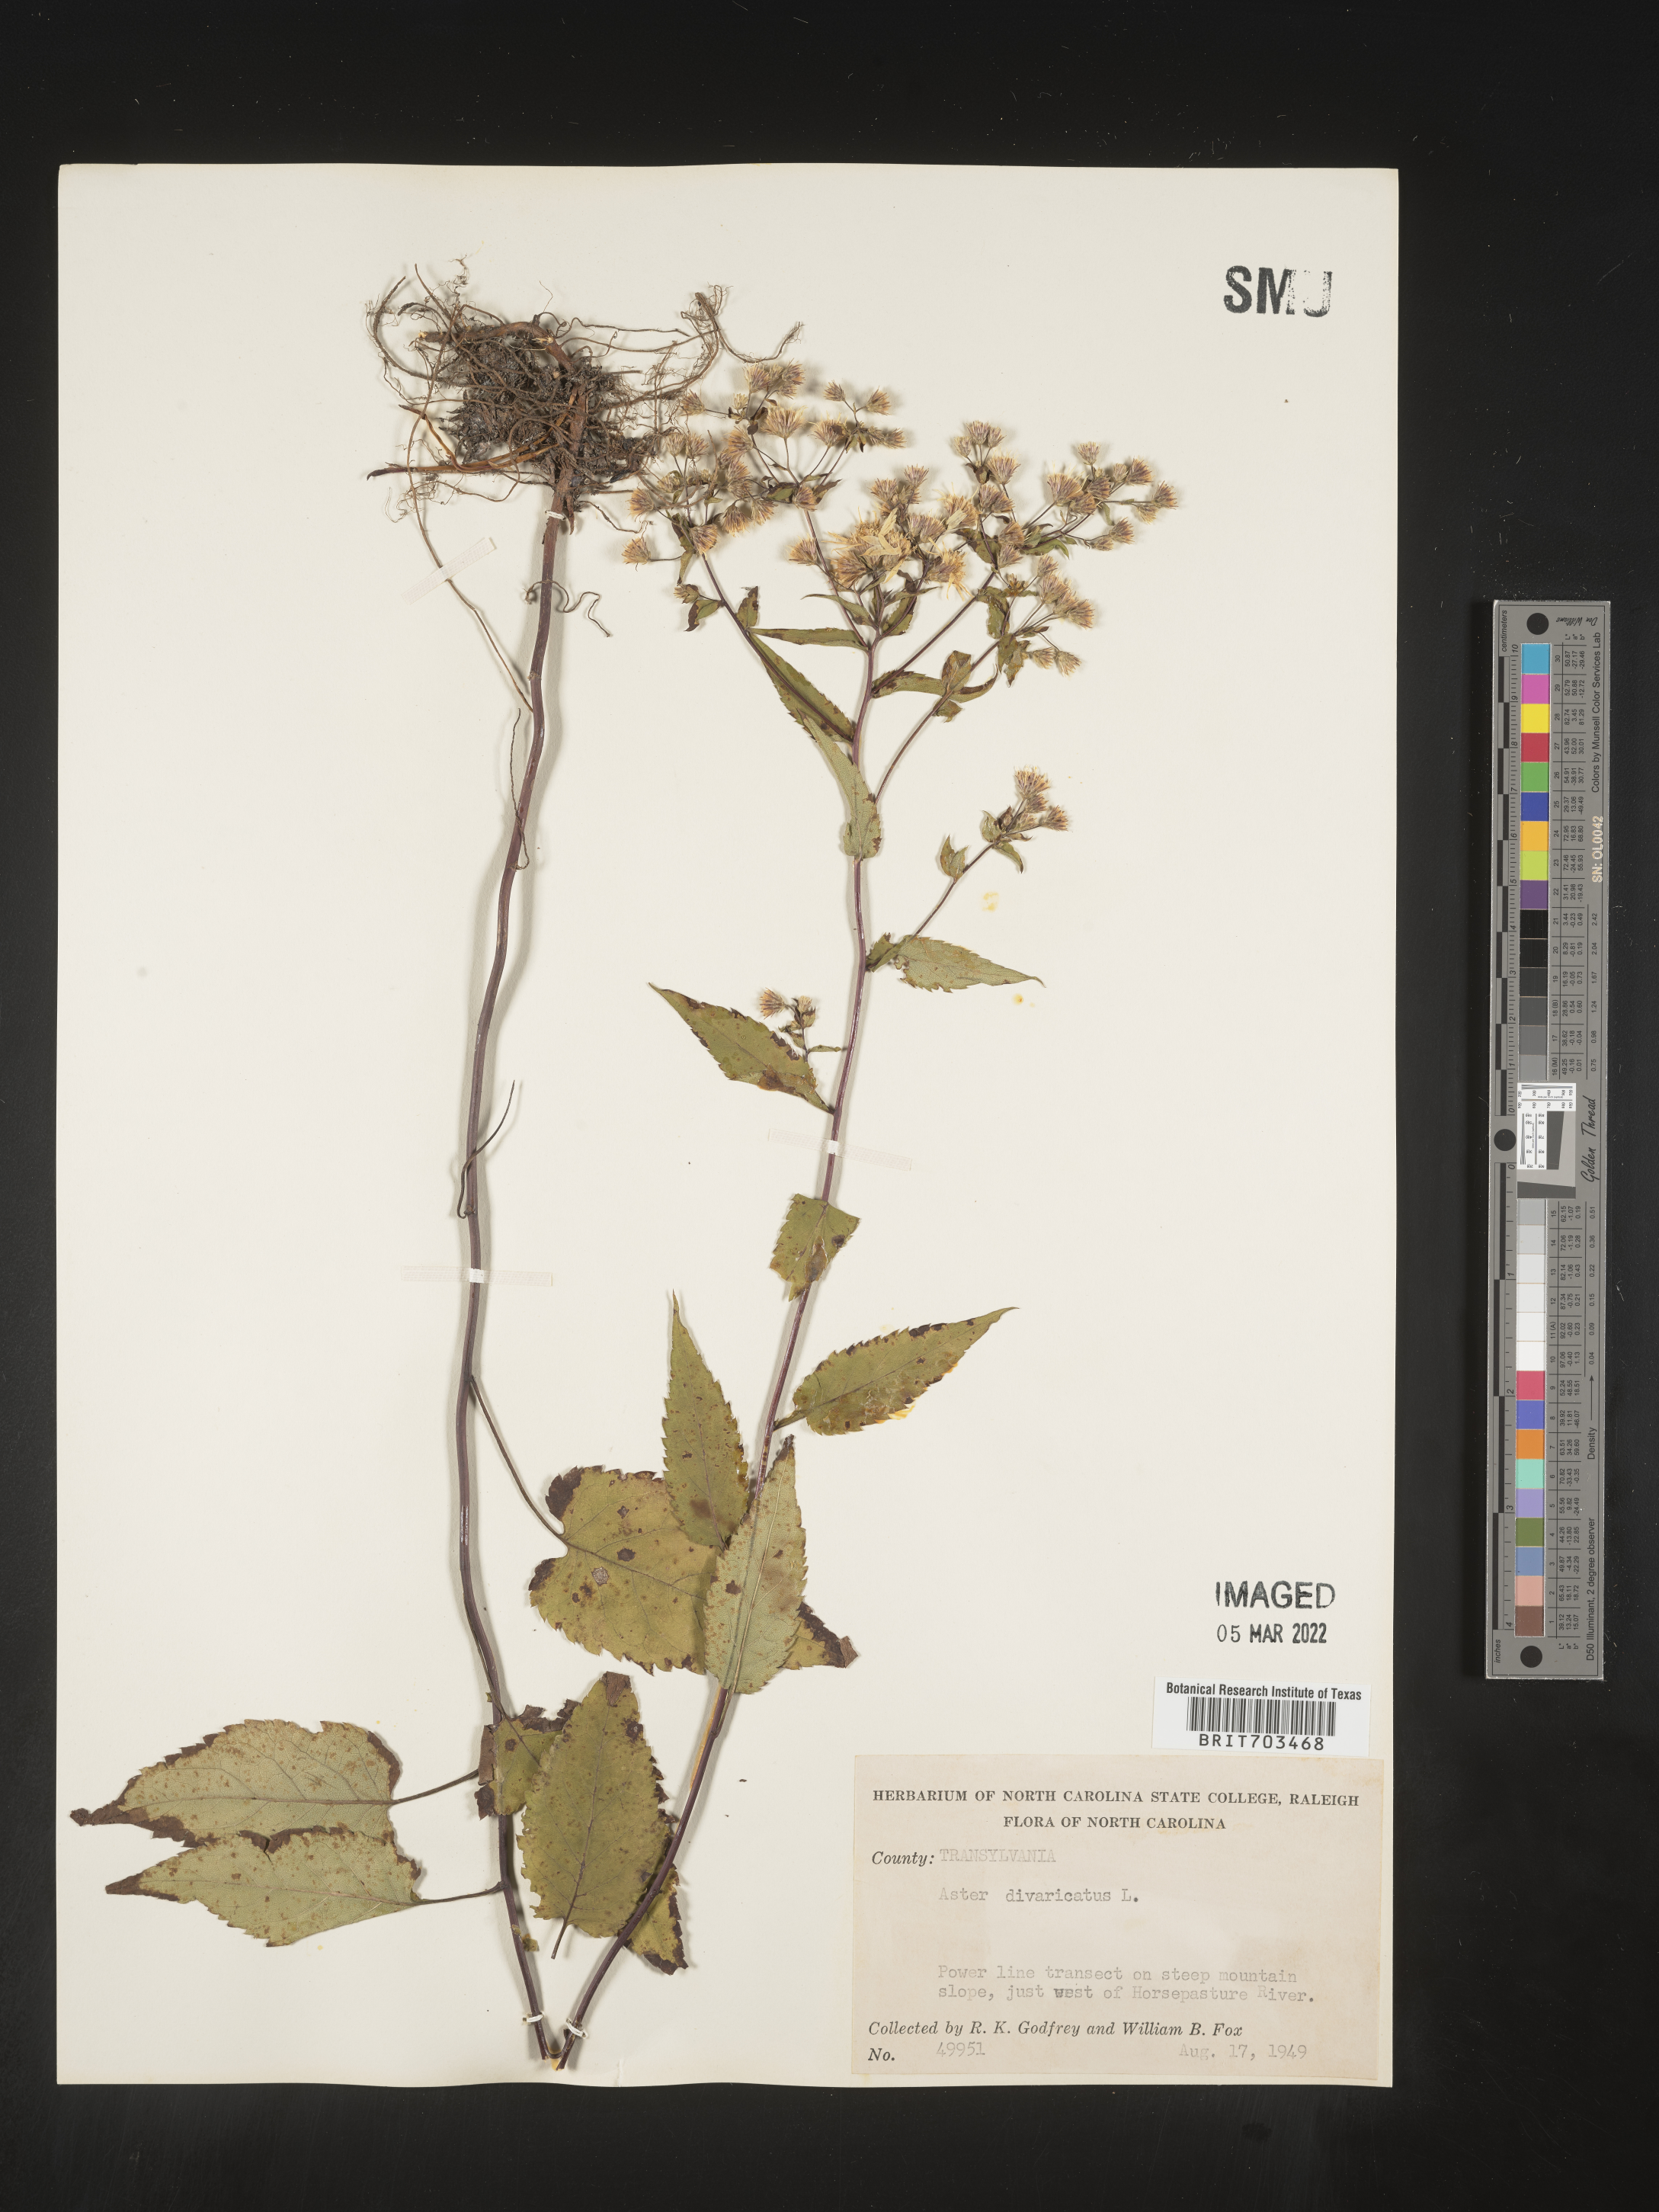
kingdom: Plantae
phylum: Tracheophyta
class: Magnoliopsida
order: Asterales
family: Asteraceae
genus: Eurybia
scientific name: Eurybia divaricata
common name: White wood aster
